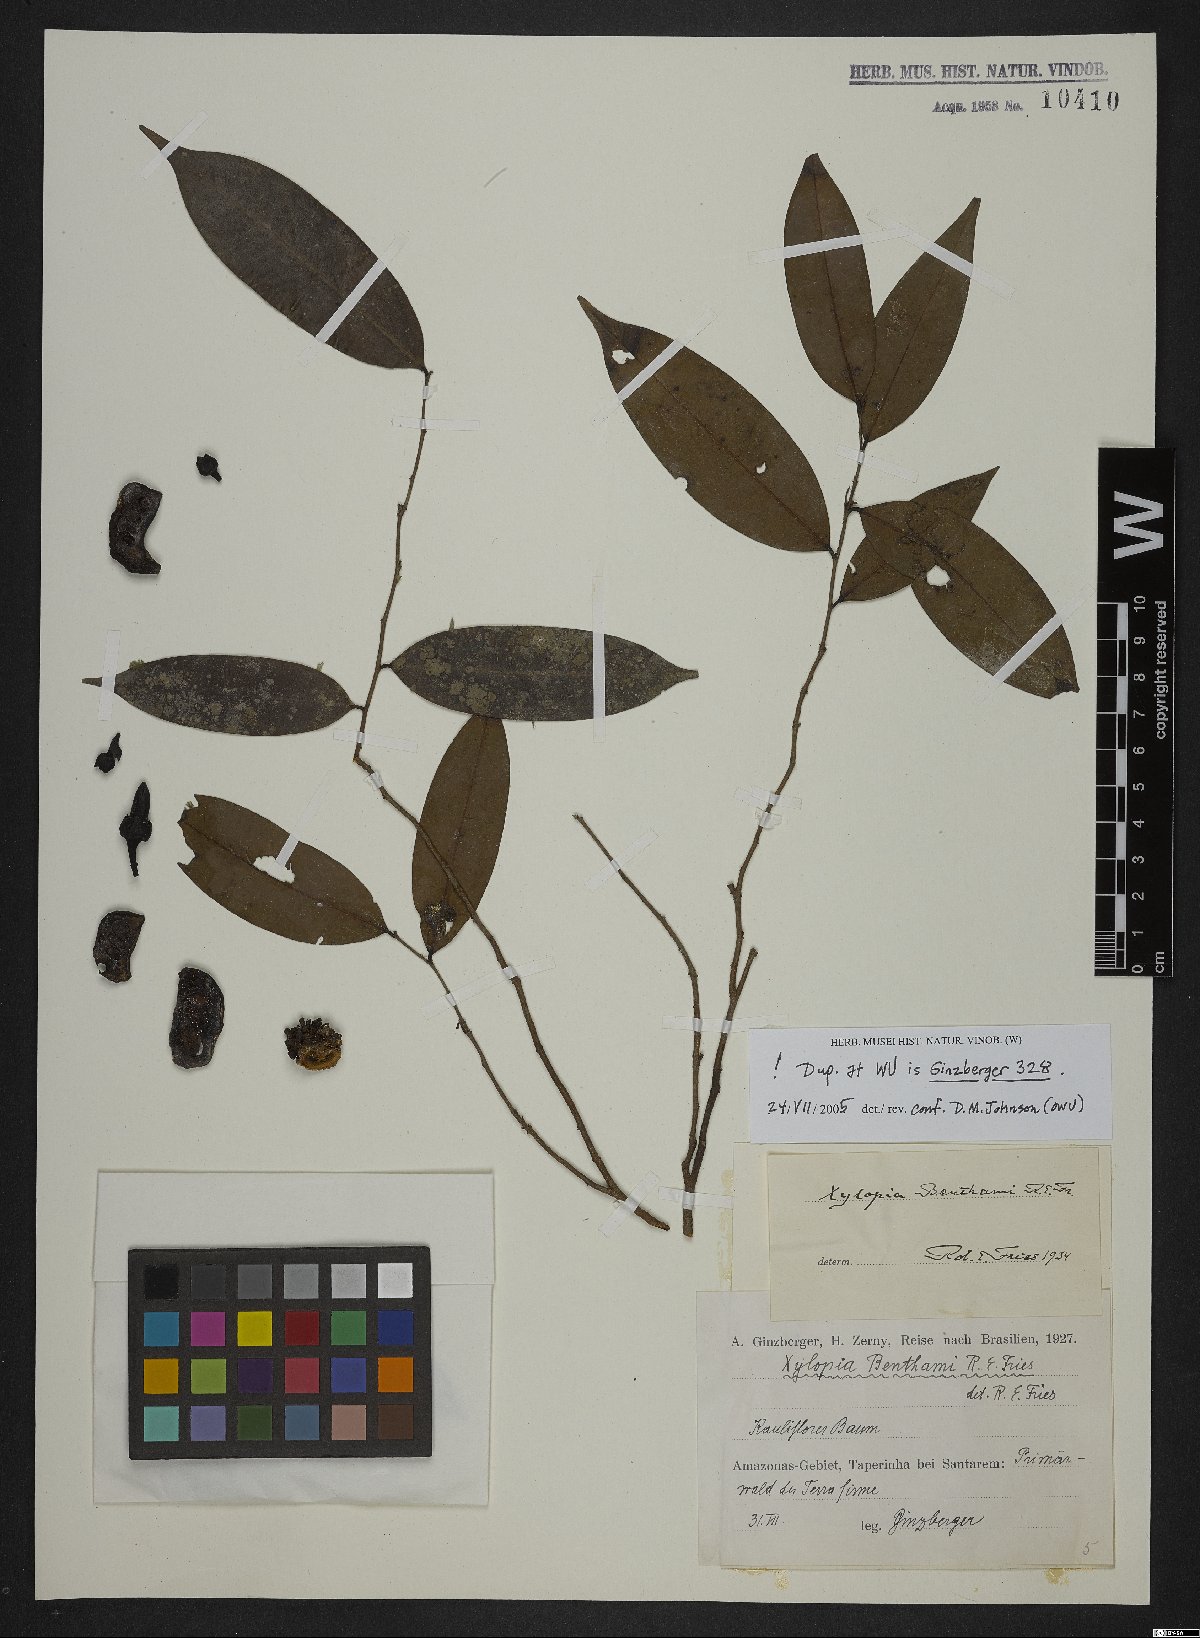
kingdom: Plantae
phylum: Tracheophyta
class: Magnoliopsida
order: Magnoliales
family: Annonaceae
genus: Xylopia
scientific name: Xylopia benthamii
